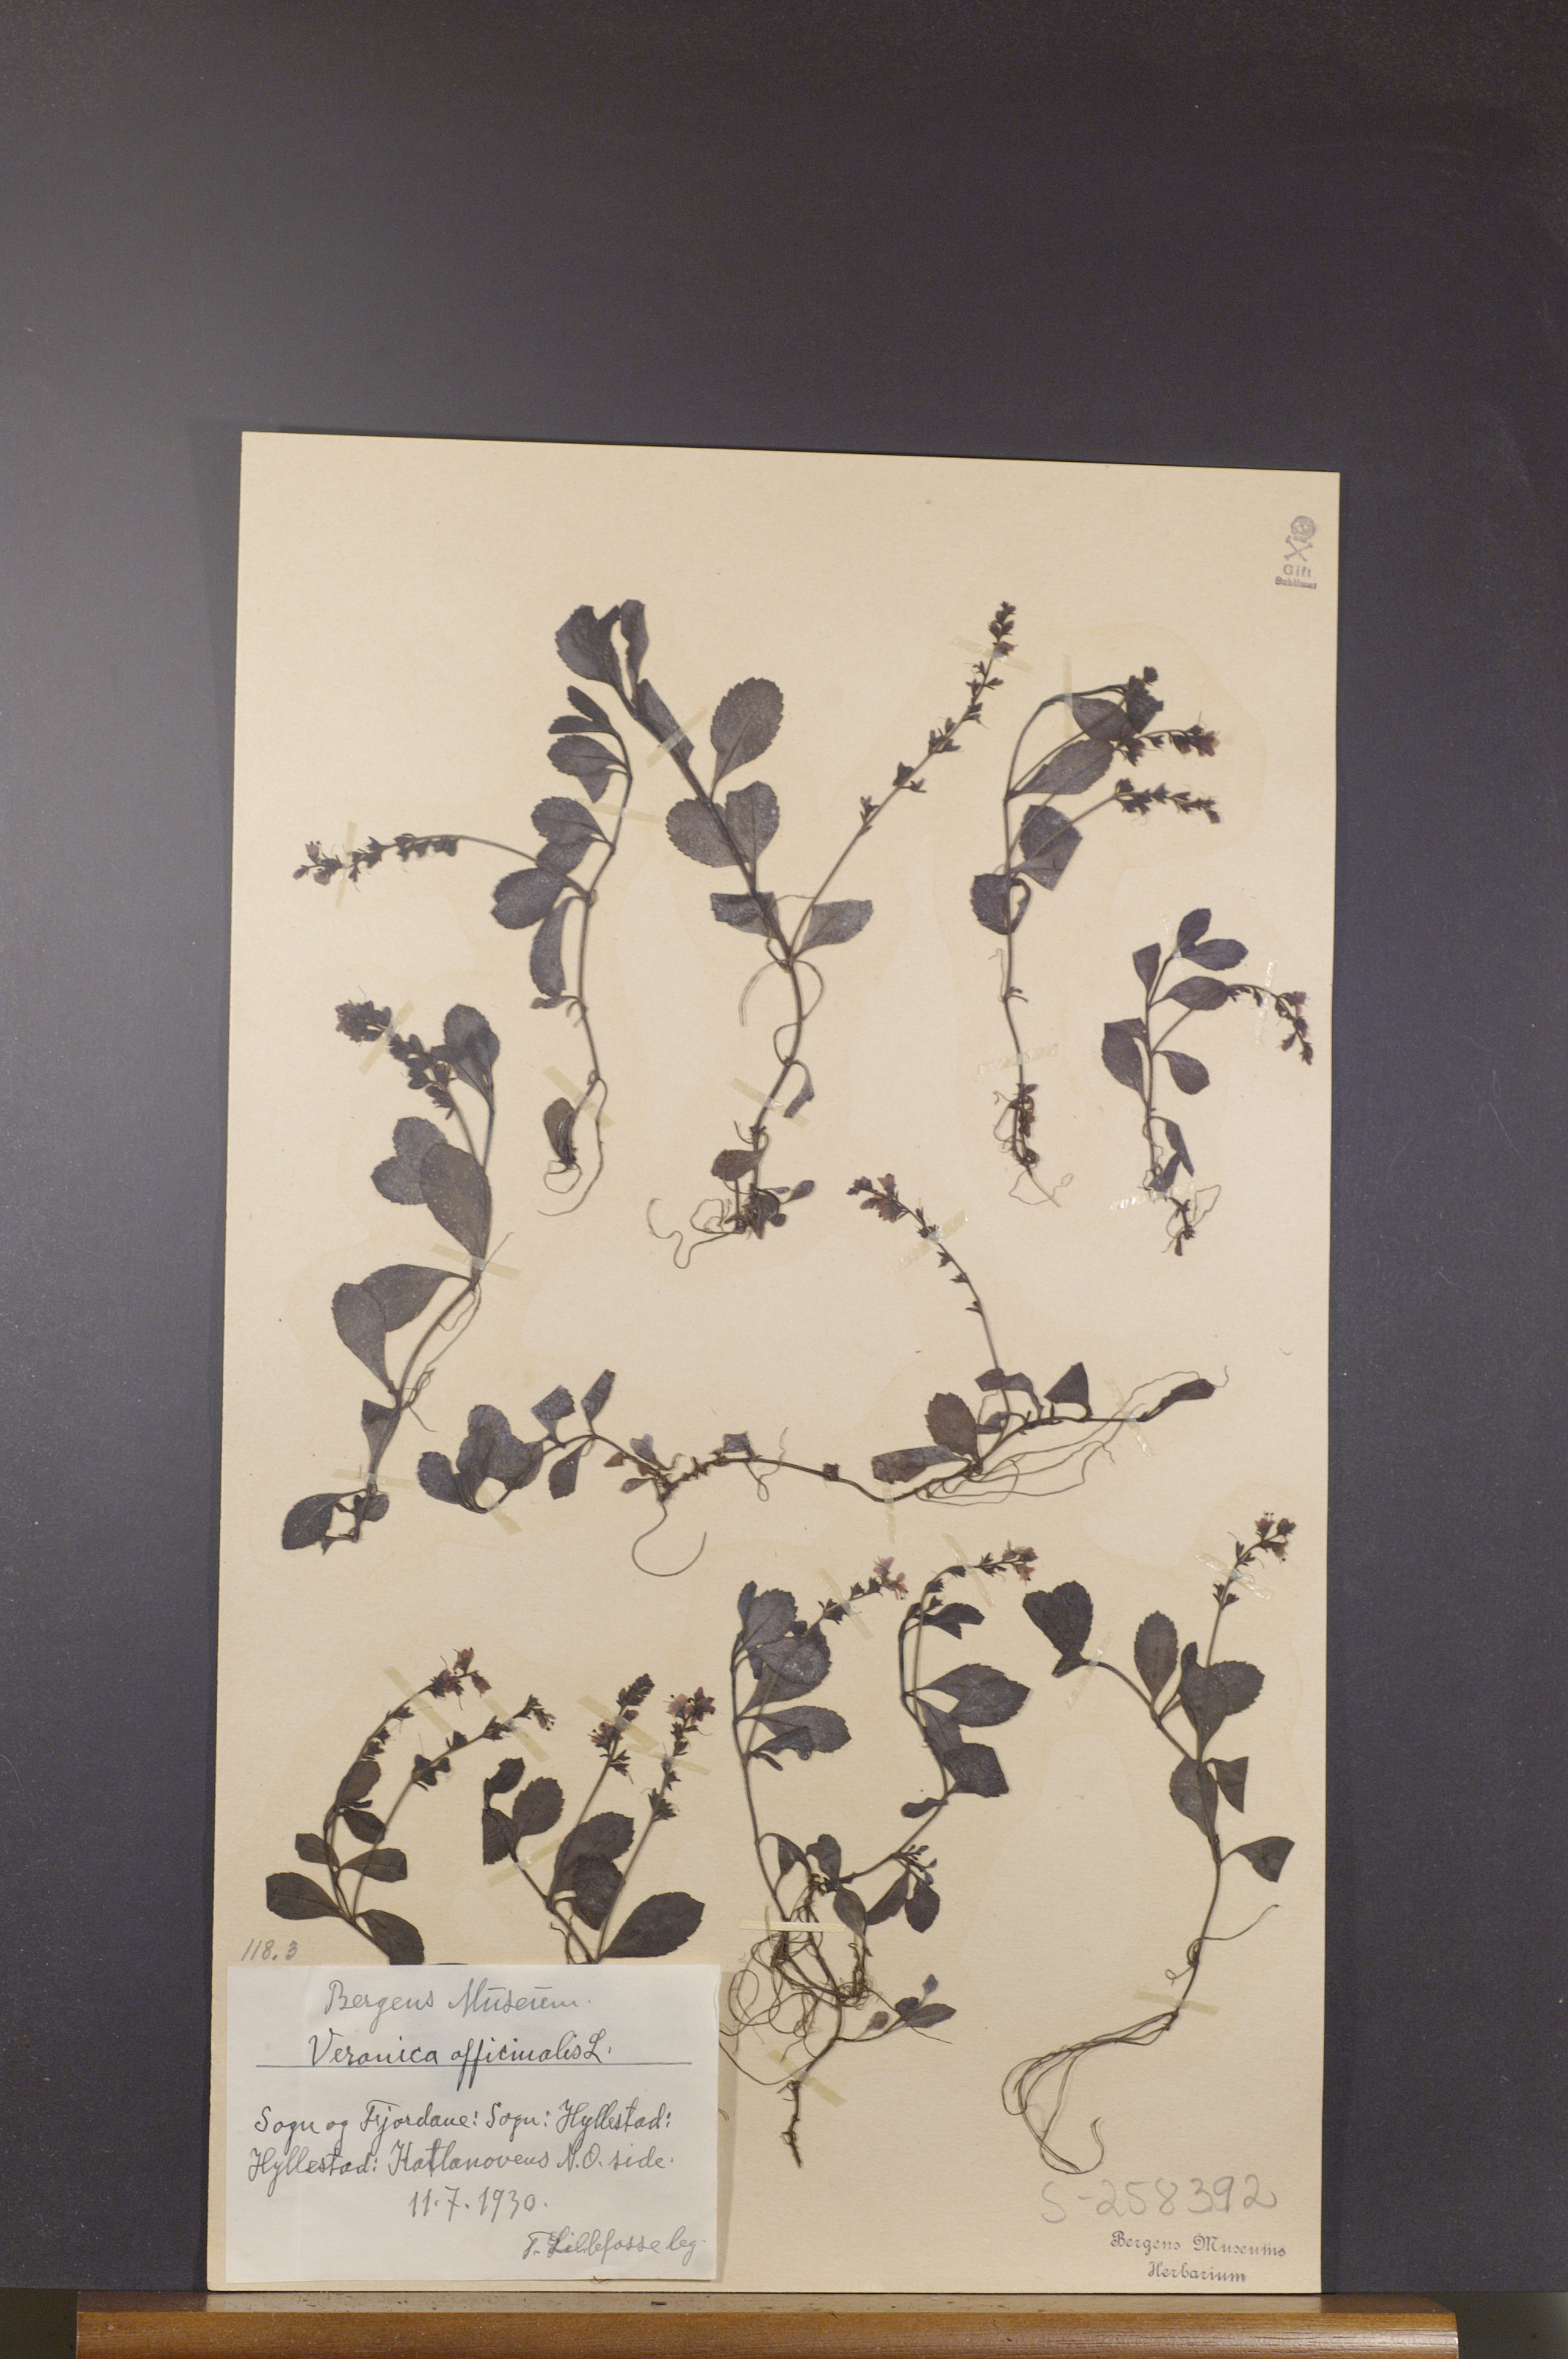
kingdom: Plantae
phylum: Tracheophyta
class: Magnoliopsida
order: Lamiales
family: Plantaginaceae
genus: Veronica
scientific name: Veronica officinalis
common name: Common speedwell
